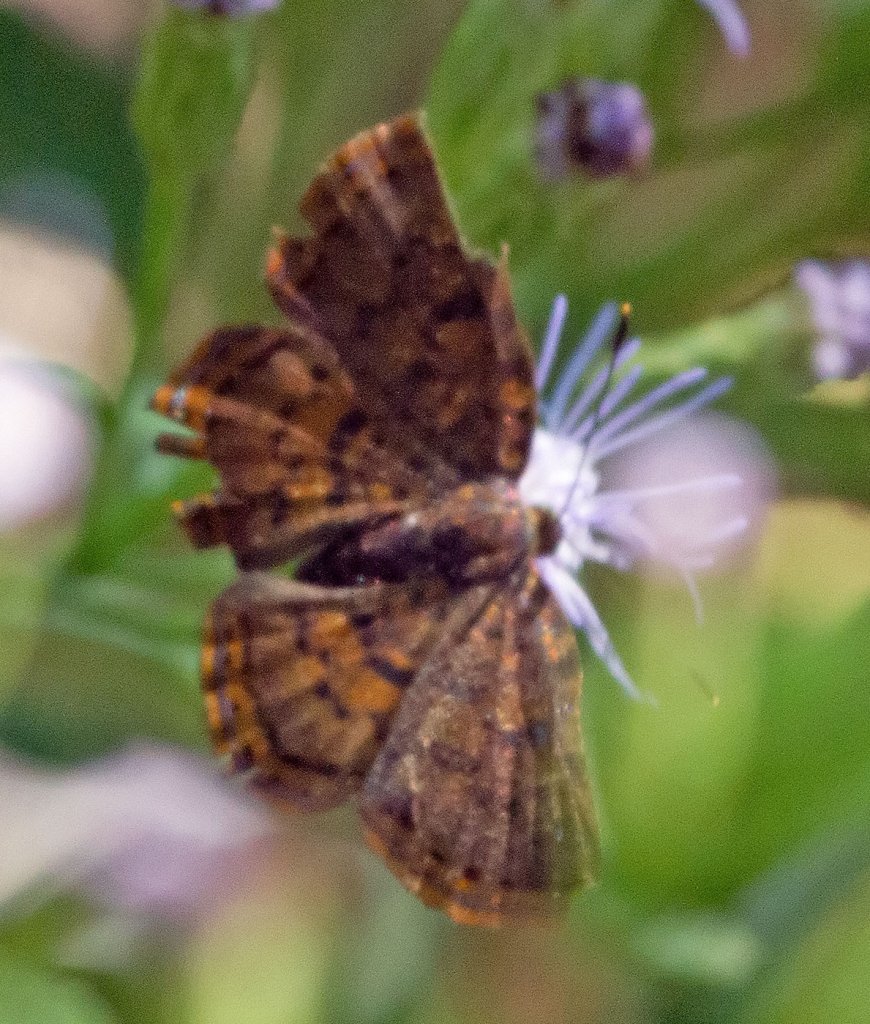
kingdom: Animalia
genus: Caria
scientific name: Caria ino
